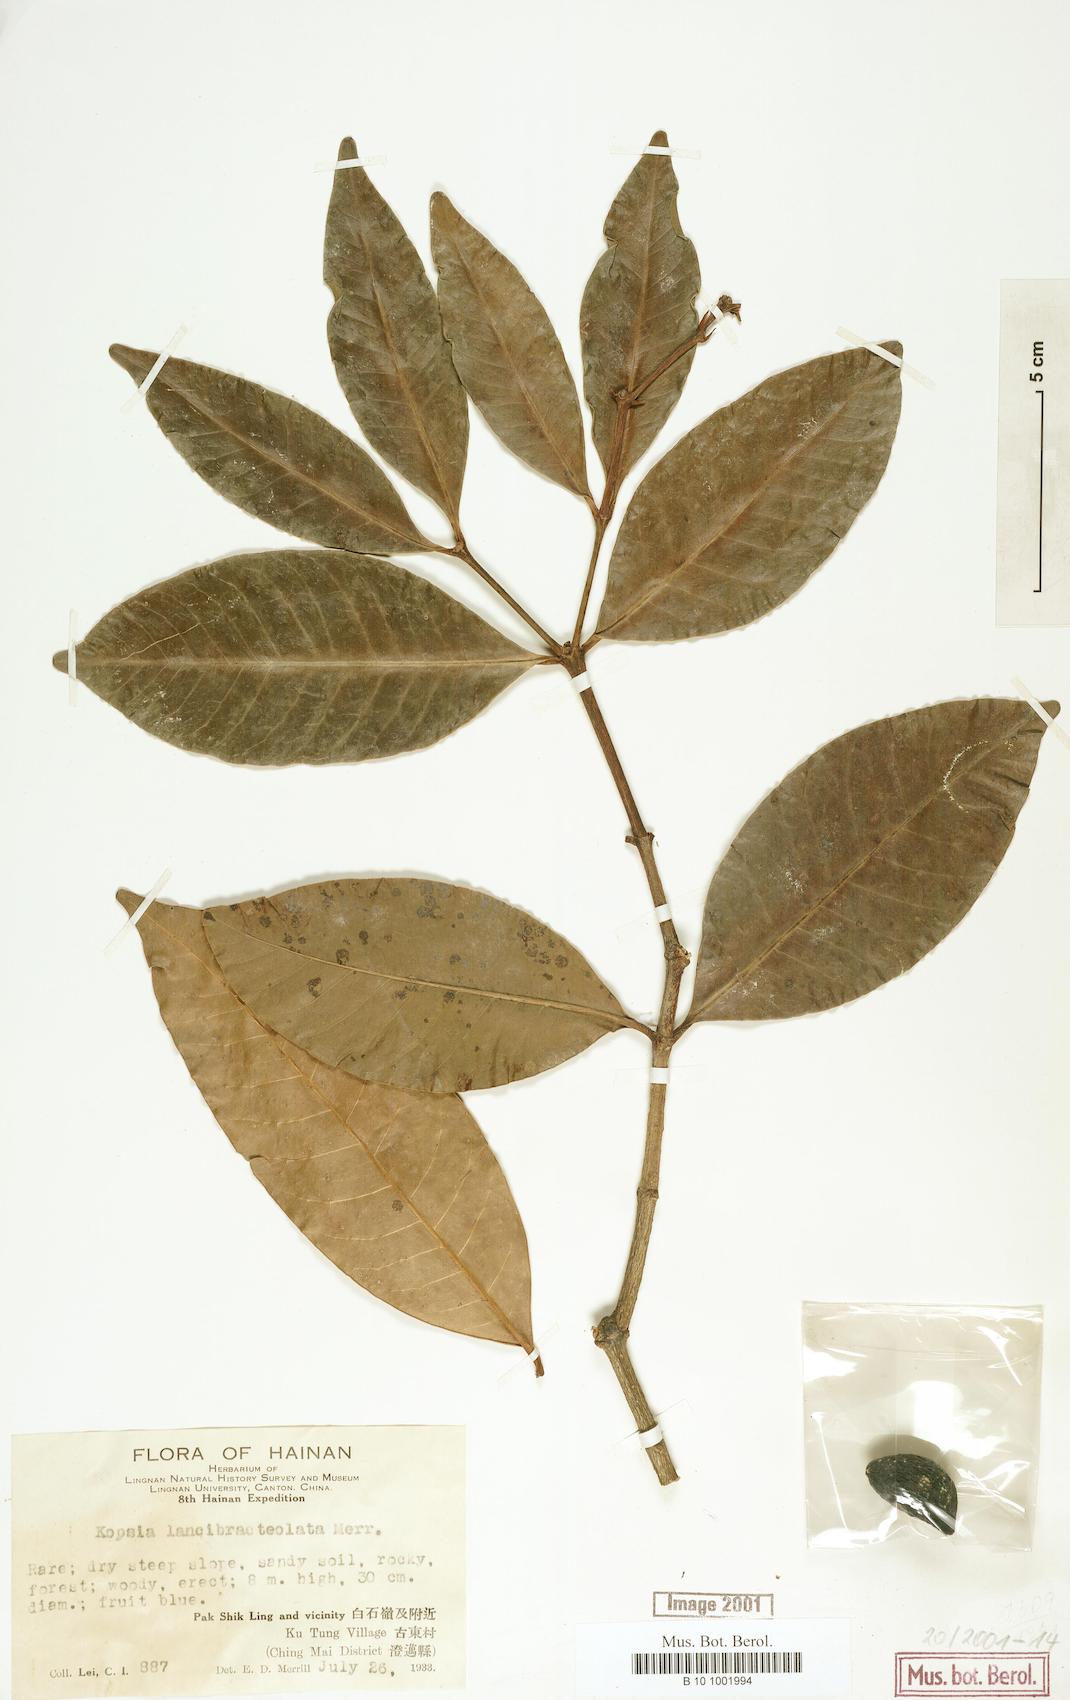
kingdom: Plantae
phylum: Tracheophyta
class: Magnoliopsida
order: Gentianales
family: Apocynaceae
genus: Kopsia
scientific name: Kopsia arborea
